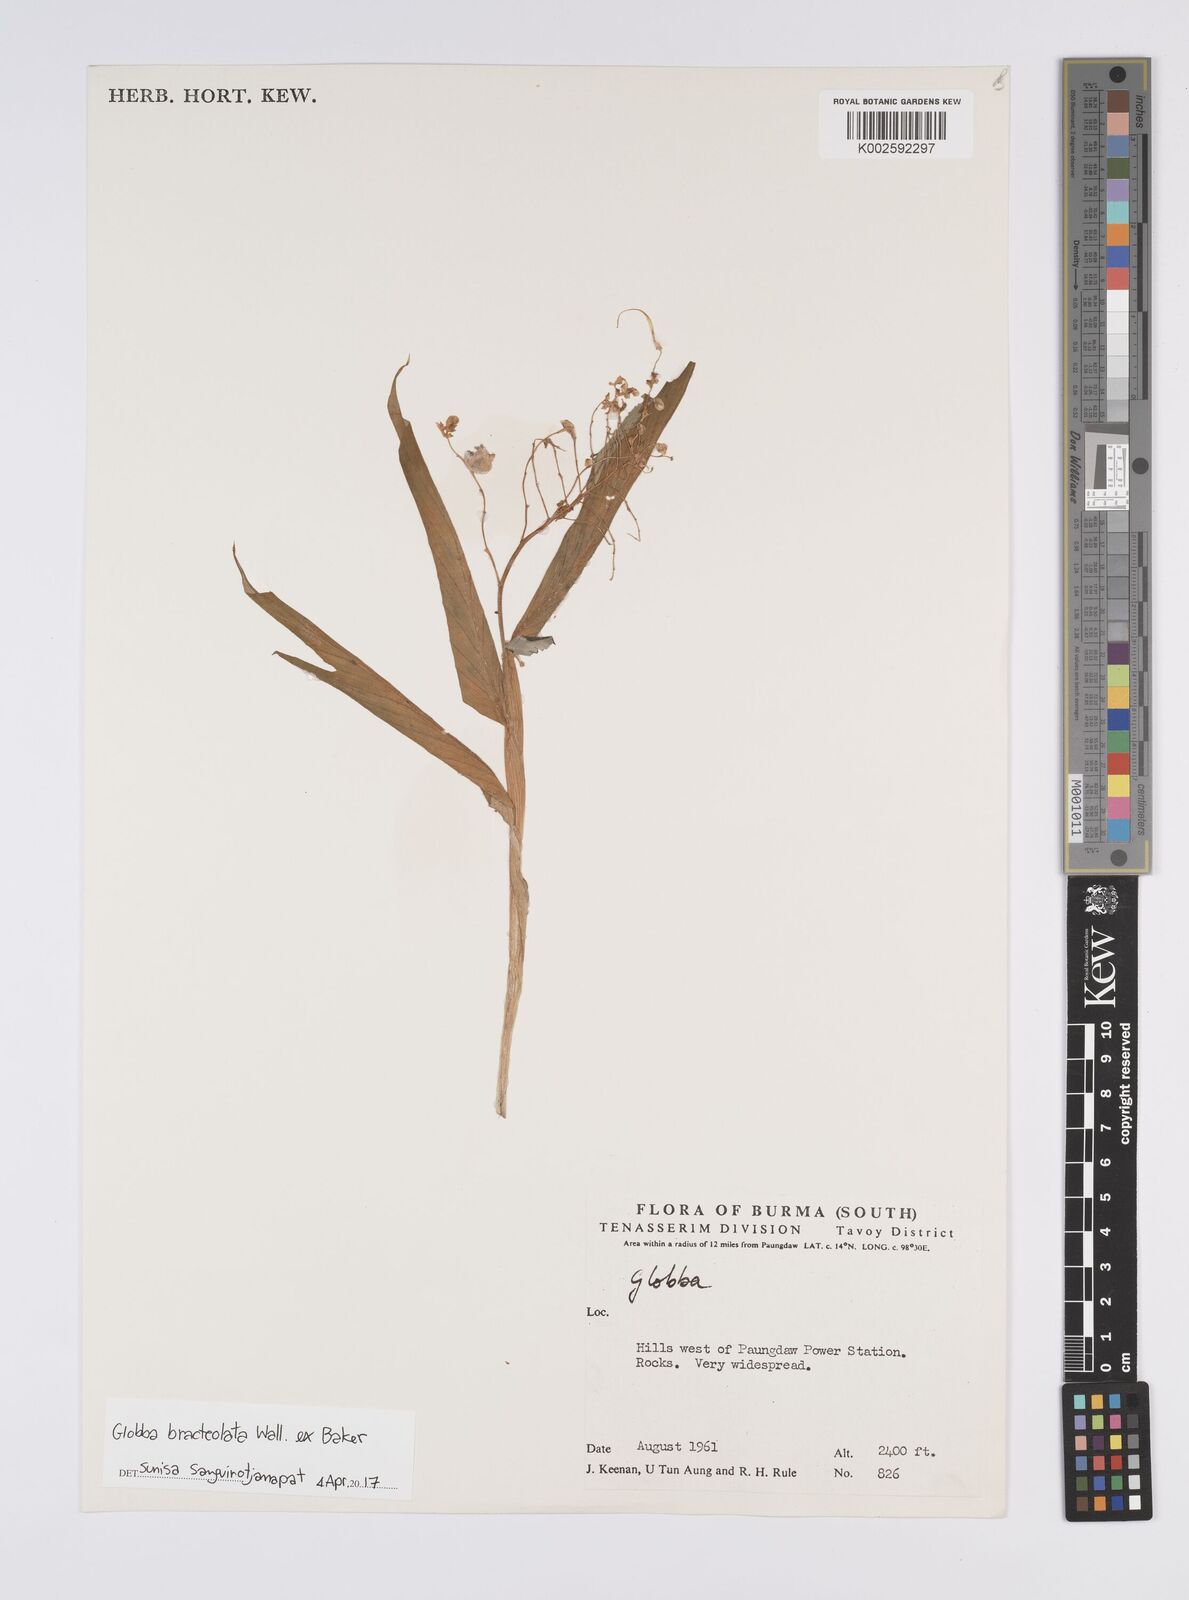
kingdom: Plantae
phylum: Tracheophyta
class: Liliopsida
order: Zingiberales
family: Zingiberaceae
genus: Globba
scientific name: Globba bracteolata
